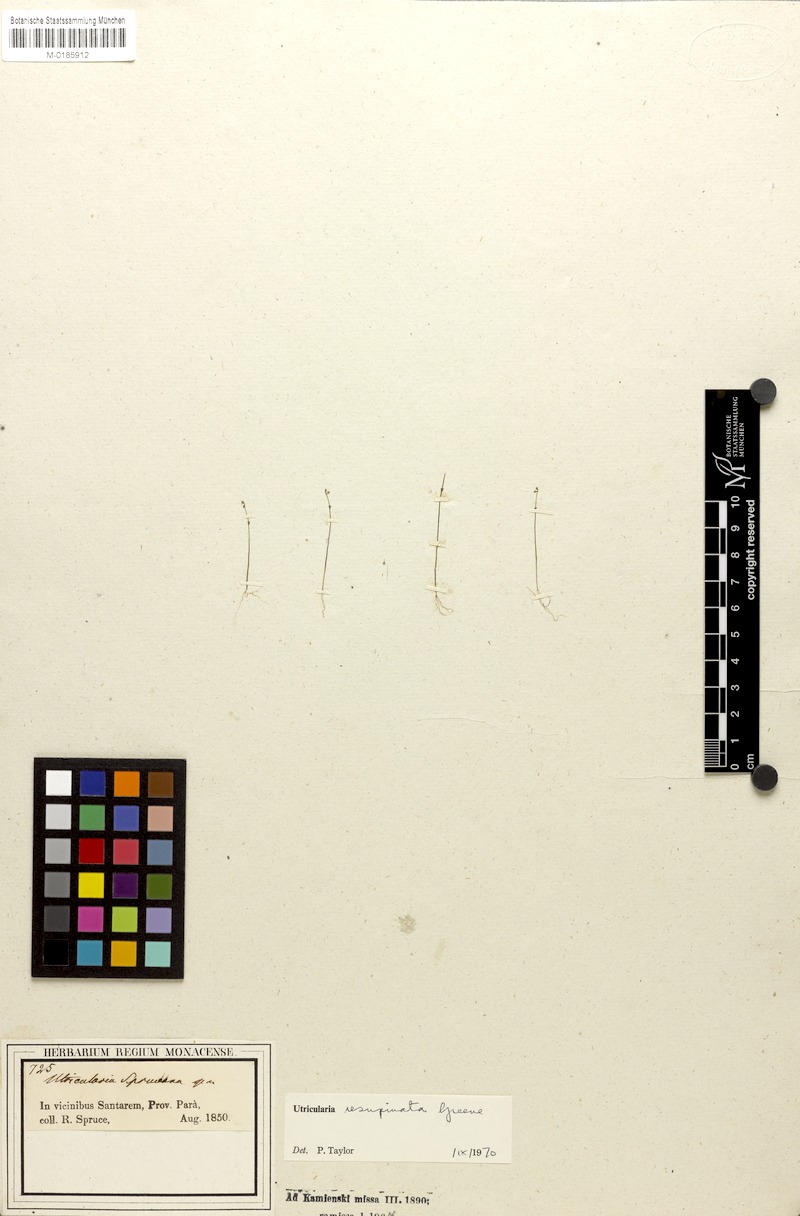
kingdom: Plantae
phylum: Tracheophyta
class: Magnoliopsida
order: Lamiales
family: Lentibulariaceae
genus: Utricularia
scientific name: Utricularia spruceana
